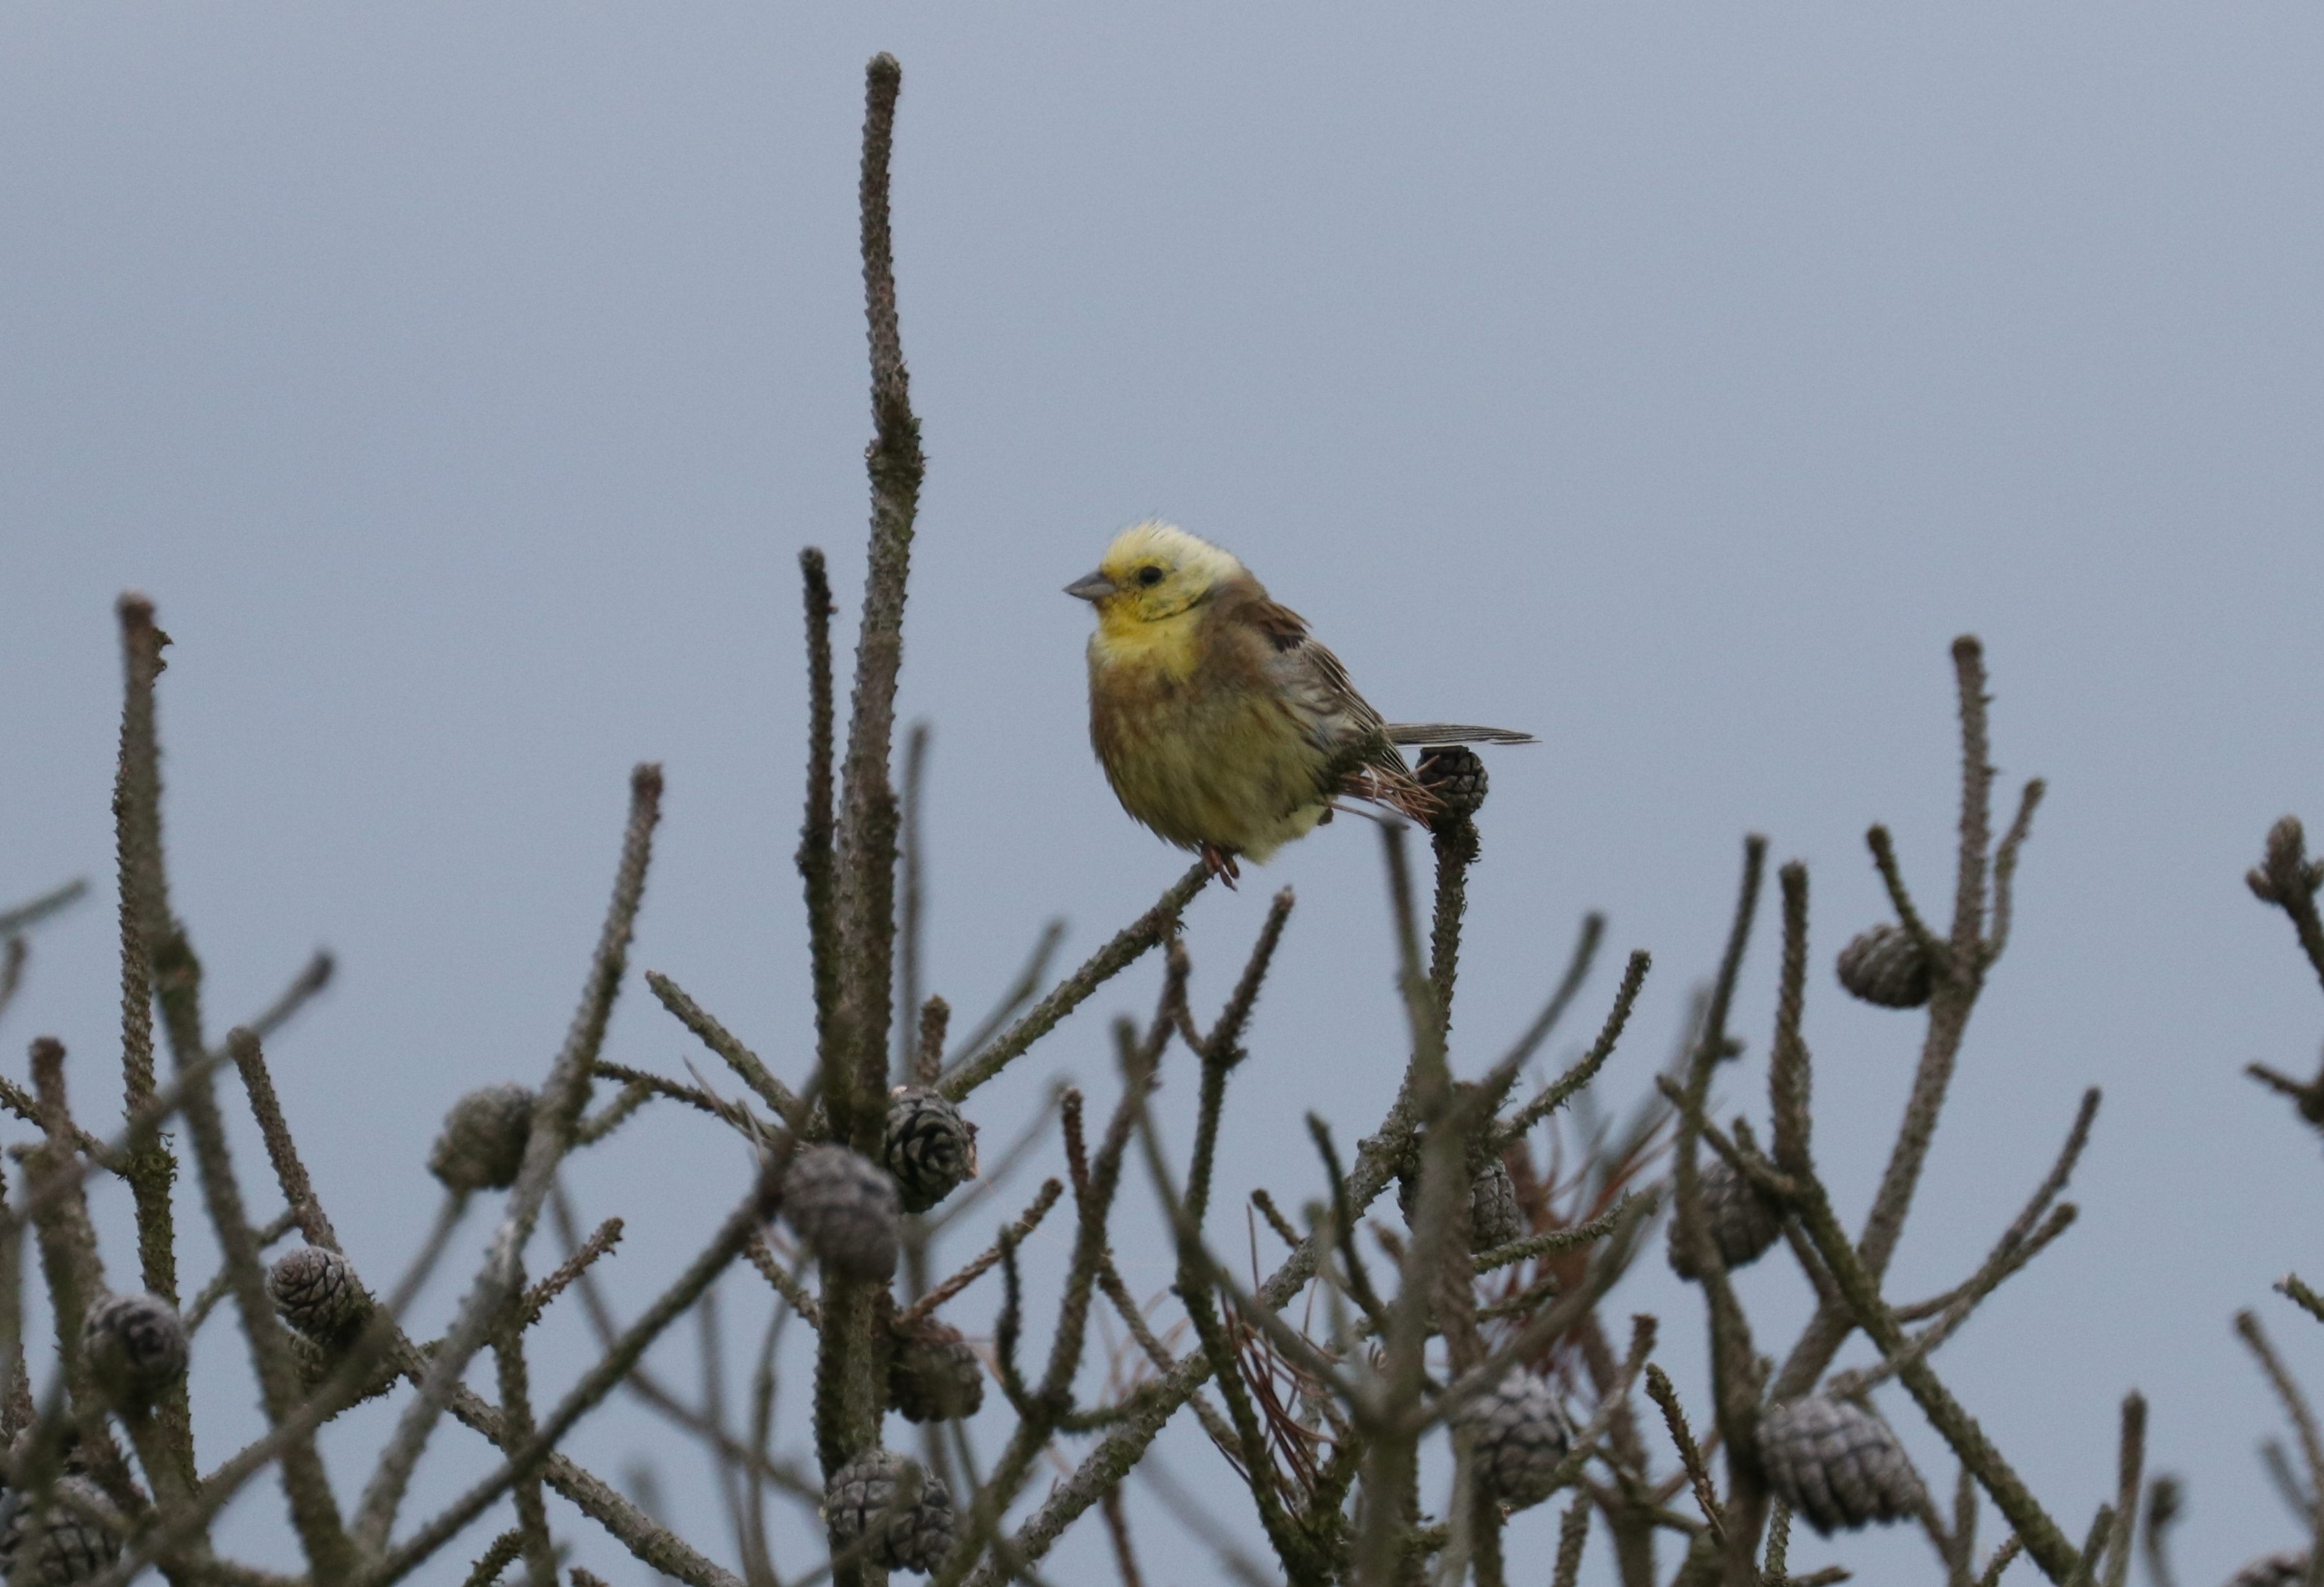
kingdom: Animalia
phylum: Chordata
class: Aves
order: Passeriformes
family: Emberizidae
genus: Emberiza
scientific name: Emberiza citrinella
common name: Gulspurv
